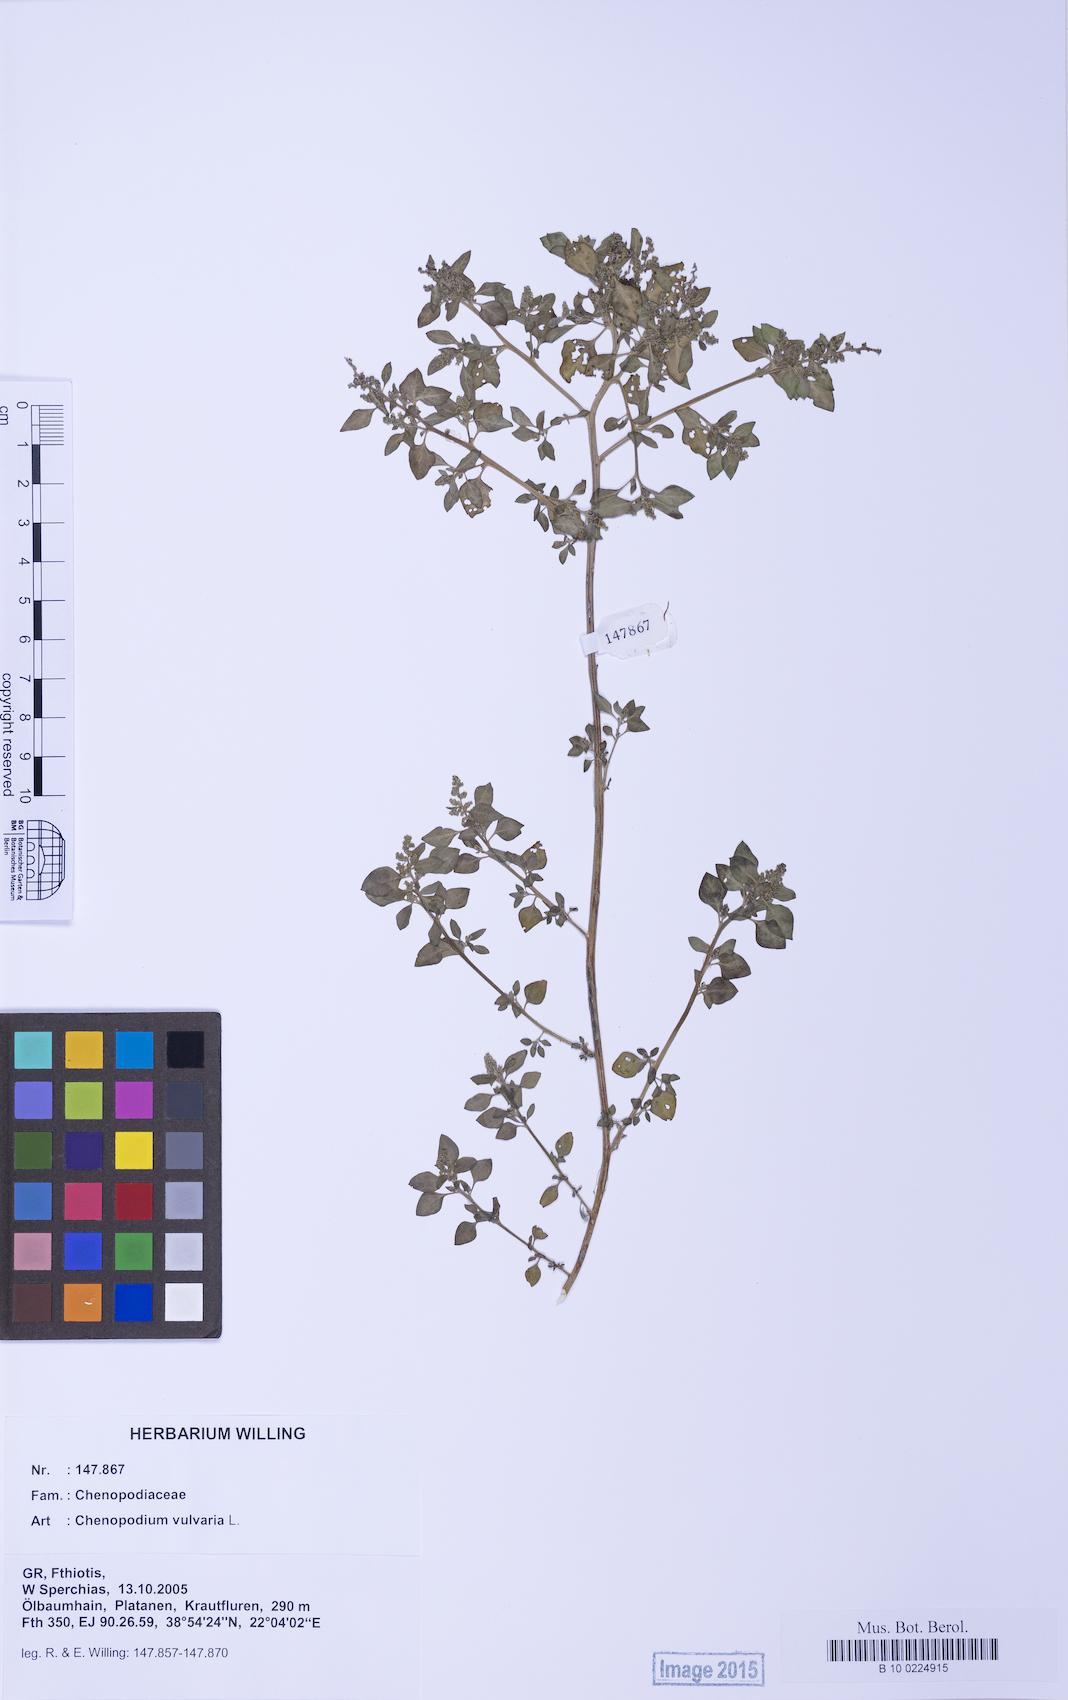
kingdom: Plantae
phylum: Tracheophyta
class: Magnoliopsida
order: Caryophyllales
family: Amaranthaceae
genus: Chenopodium
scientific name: Chenopodium vulvaria
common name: Stinking goosefoot
